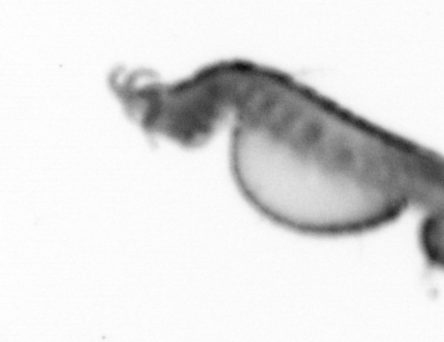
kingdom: Animalia
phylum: Annelida
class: Polychaeta
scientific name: Polychaeta
